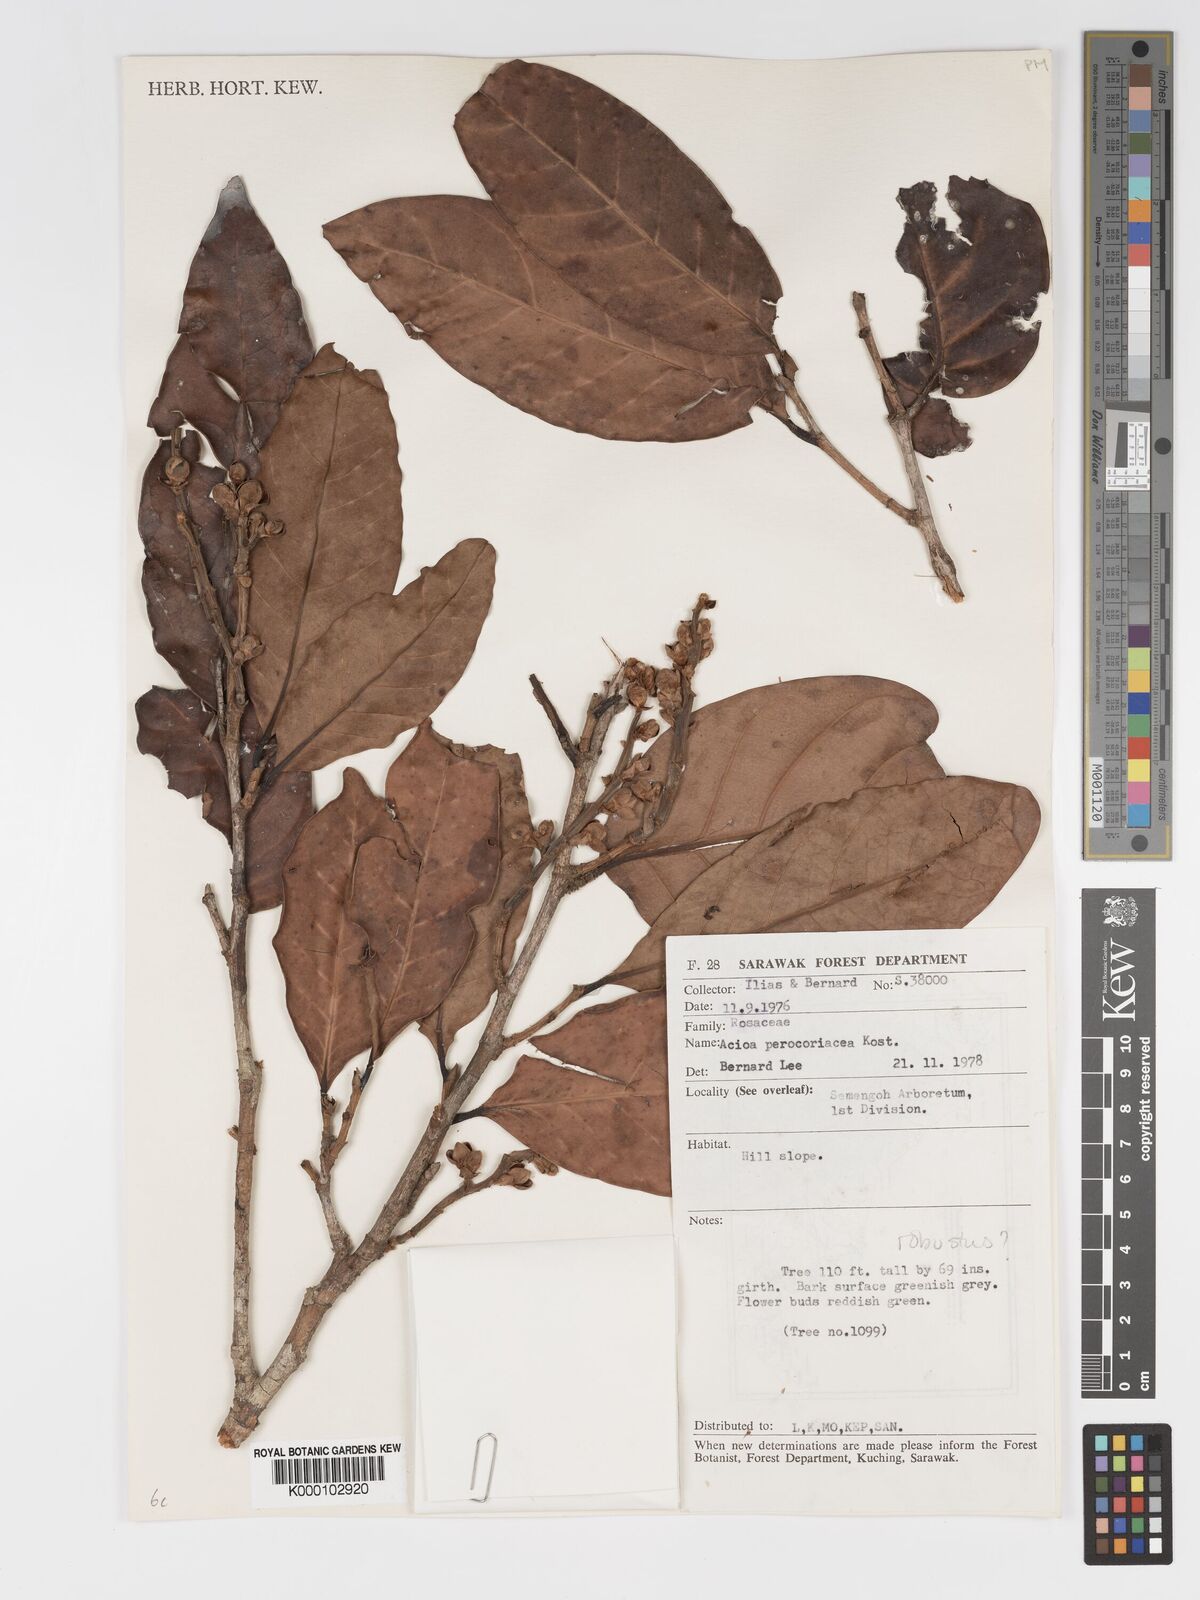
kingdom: Plantae
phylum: Tracheophyta
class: Magnoliopsida
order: Malpighiales
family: Chrysobalanaceae
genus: Kostermanthus
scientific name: Kostermanthus robustus
